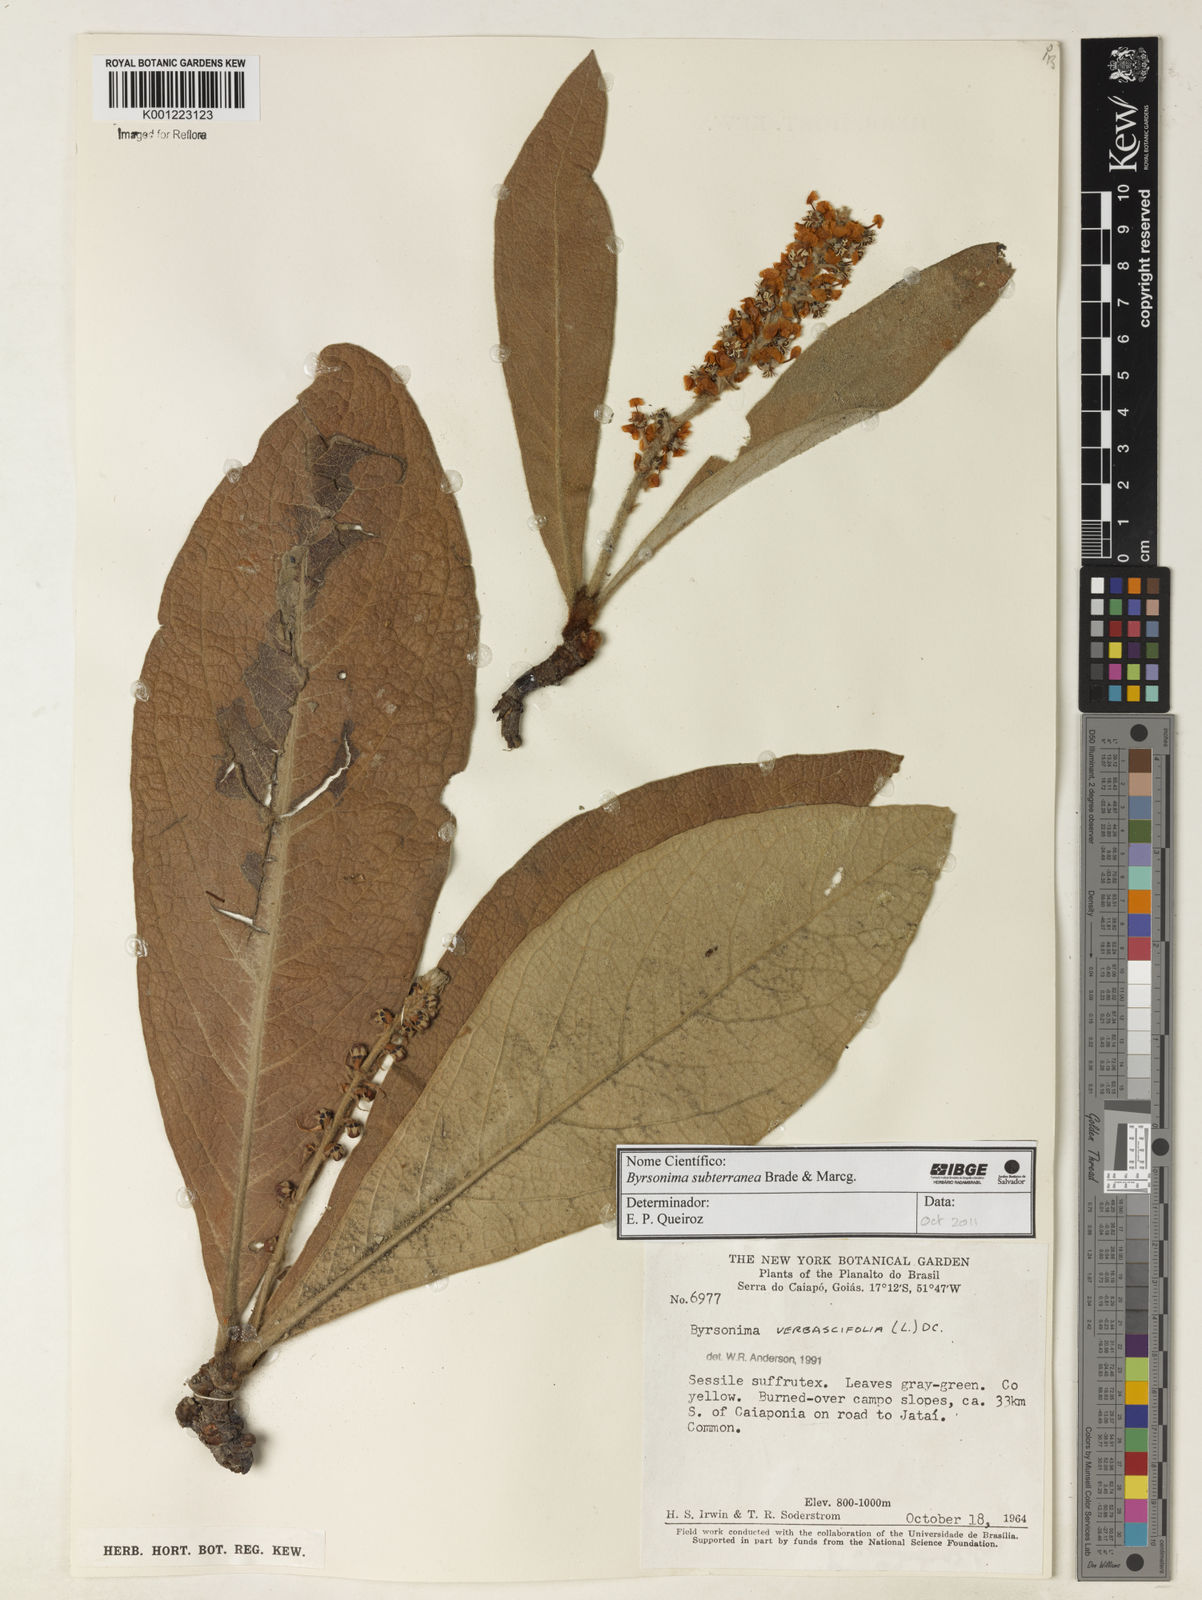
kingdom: Plantae
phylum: Tracheophyta
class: Magnoliopsida
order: Malpighiales
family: Malpighiaceae
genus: Byrsonima
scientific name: Byrsonima subterranea
